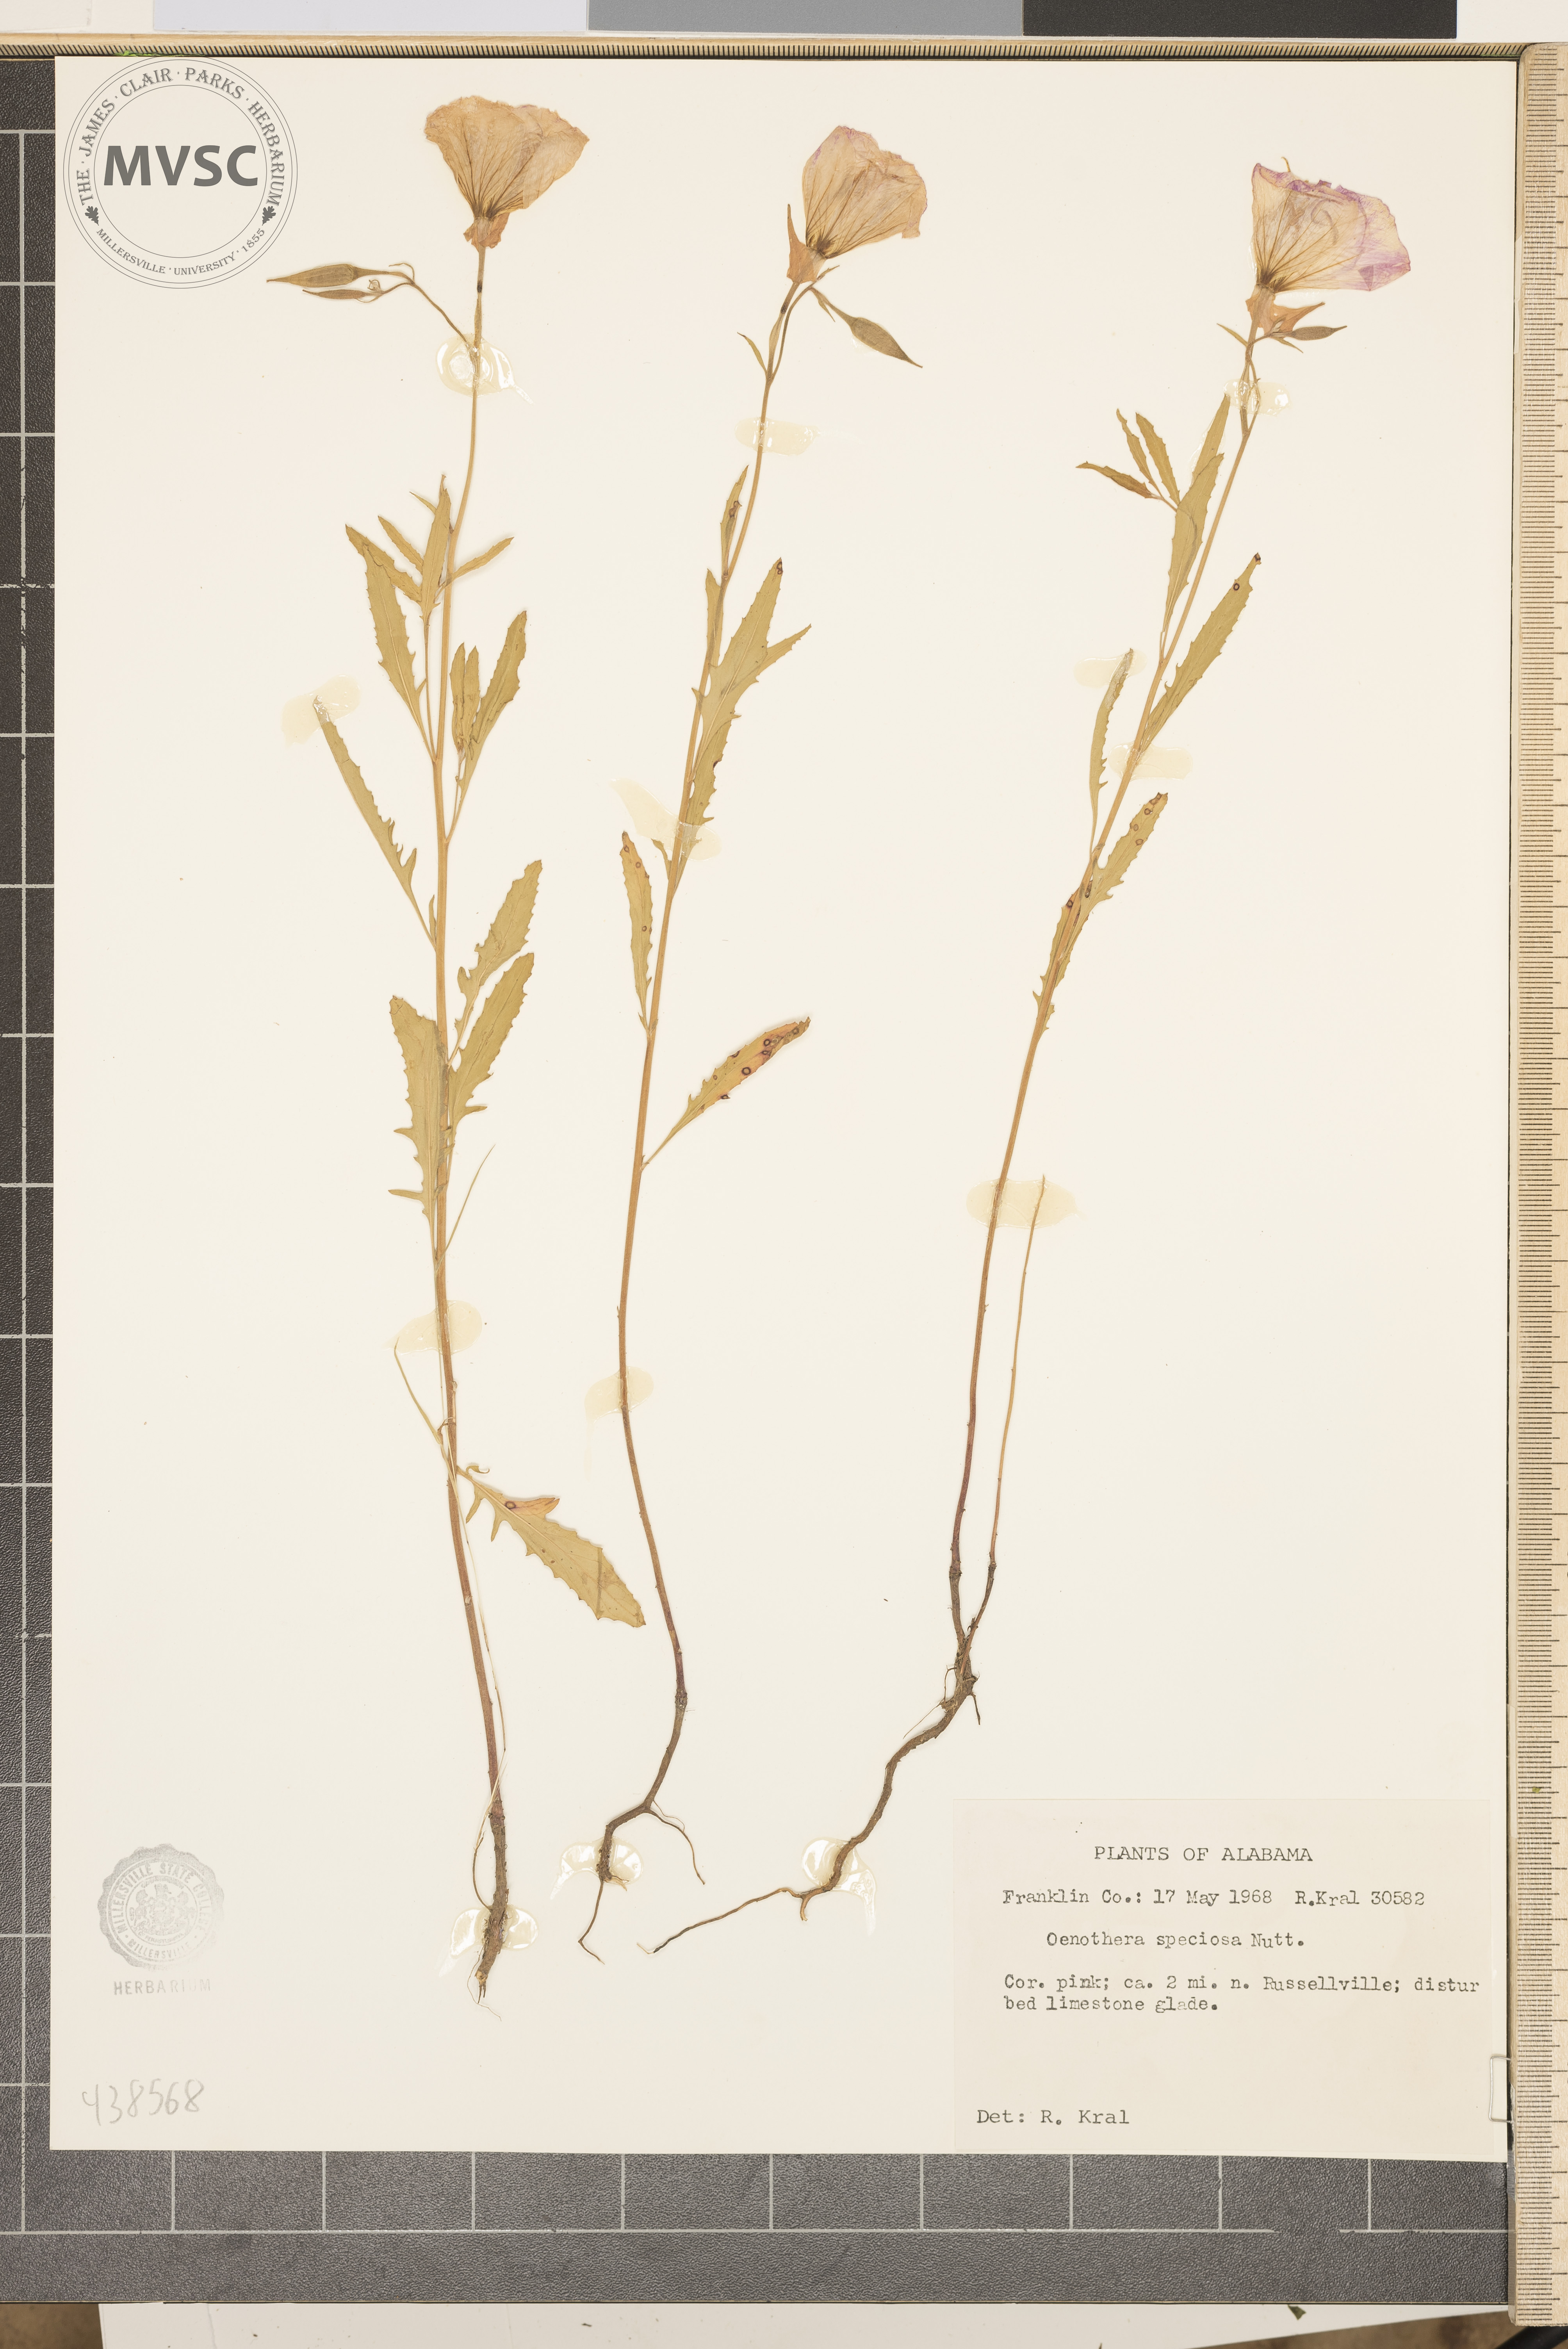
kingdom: Plantae
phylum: Tracheophyta
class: Magnoliopsida
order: Myrtales
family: Onagraceae
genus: Oenothera
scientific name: Oenothera speciosa
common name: White evening-primrose
